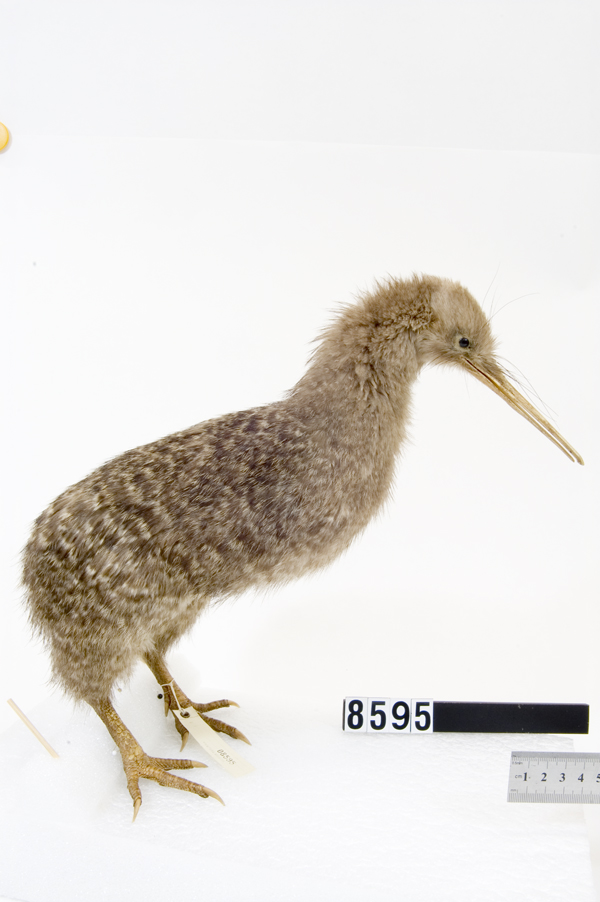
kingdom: Animalia
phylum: Chordata
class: Aves
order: Apterygiformes
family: Apterygidae
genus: Apteryx
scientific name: Apteryx owenii
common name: Little spotted kiwi
